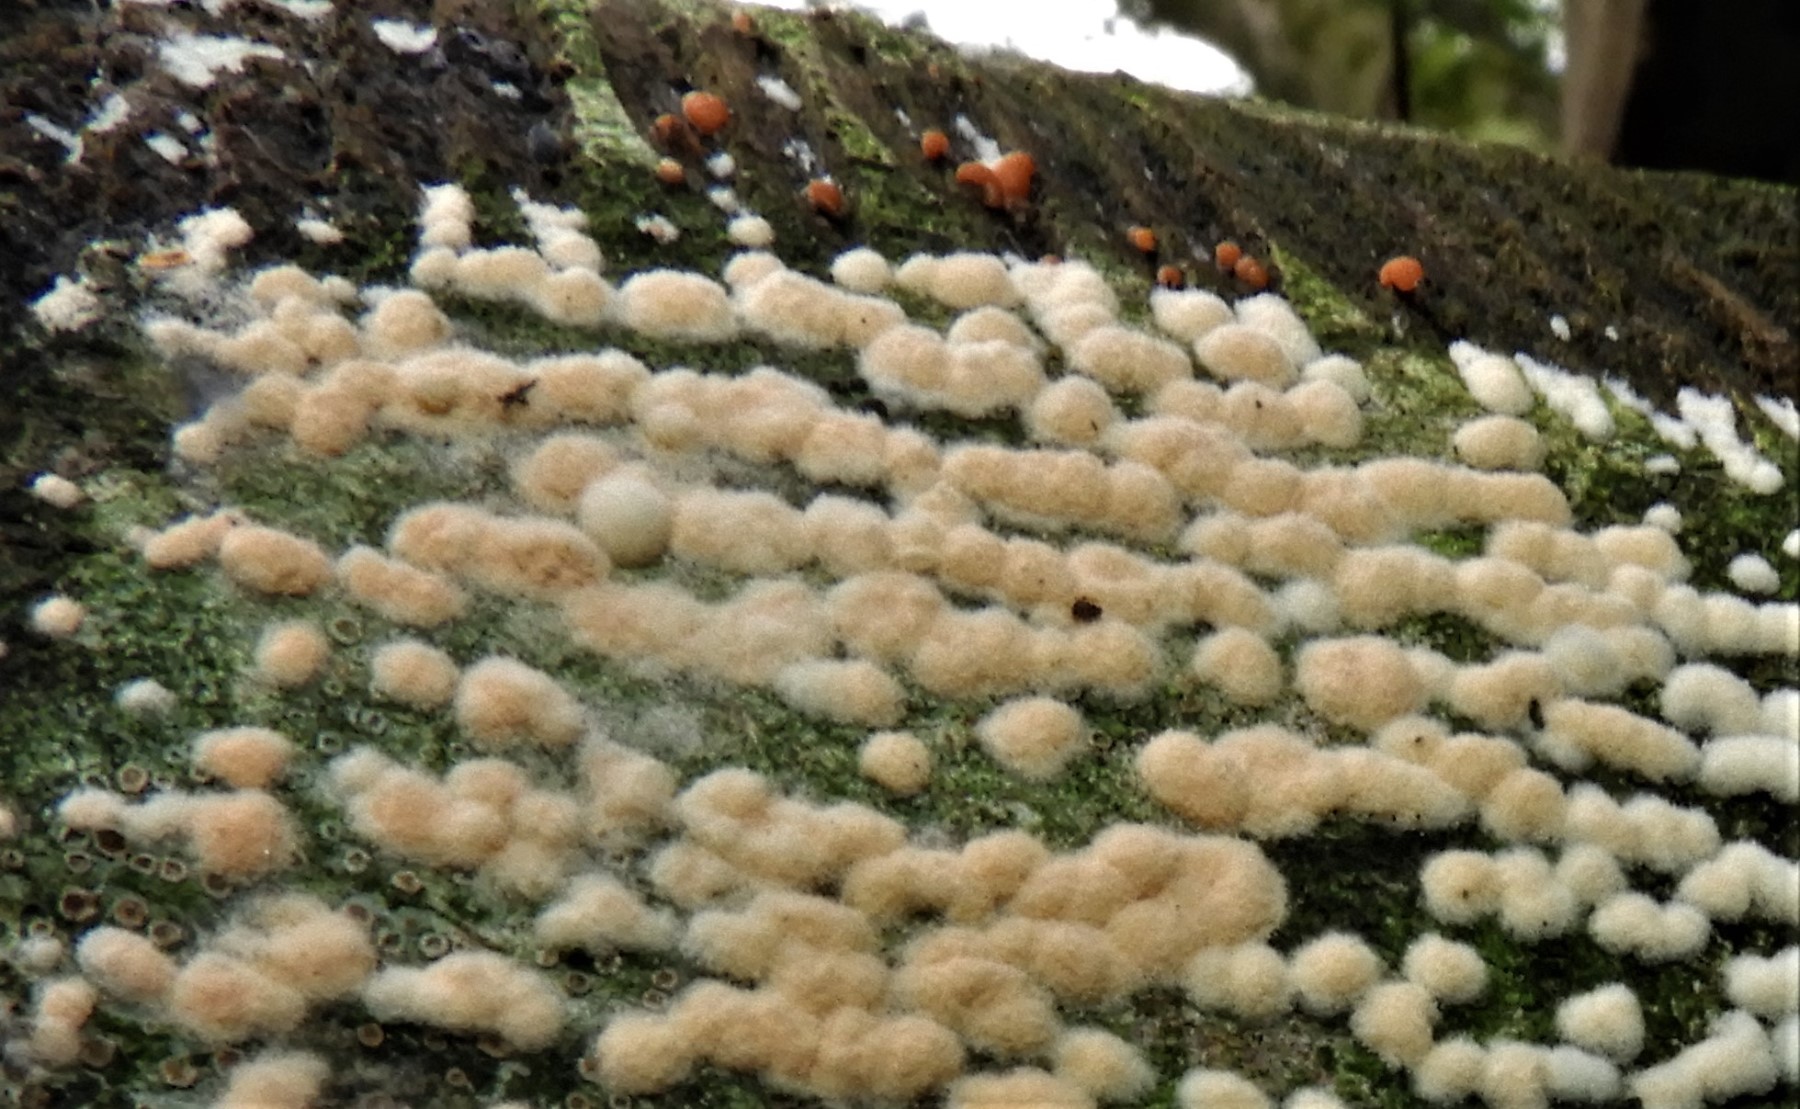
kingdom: Fungi
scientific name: Fungi
